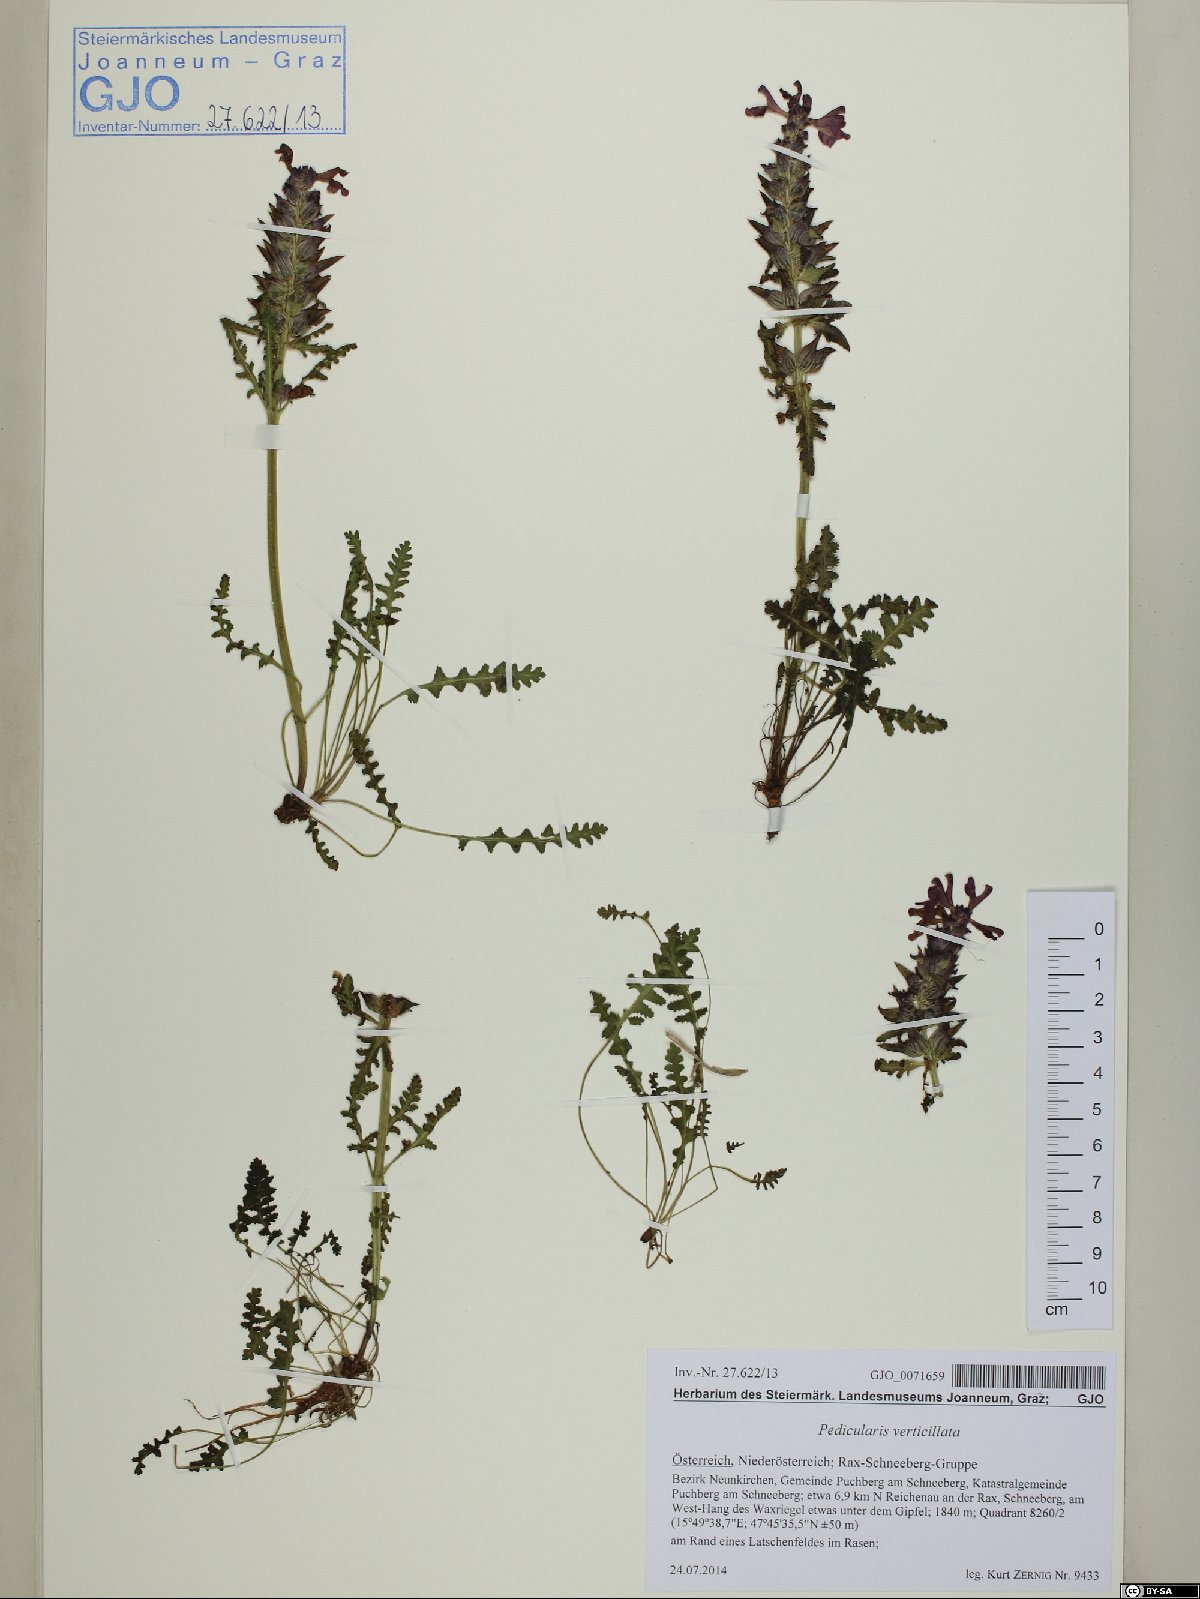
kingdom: Plantae
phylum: Tracheophyta
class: Magnoliopsida
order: Lamiales
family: Orobanchaceae
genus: Pedicularis
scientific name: Pedicularis verticillata
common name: Whorled lousewort
